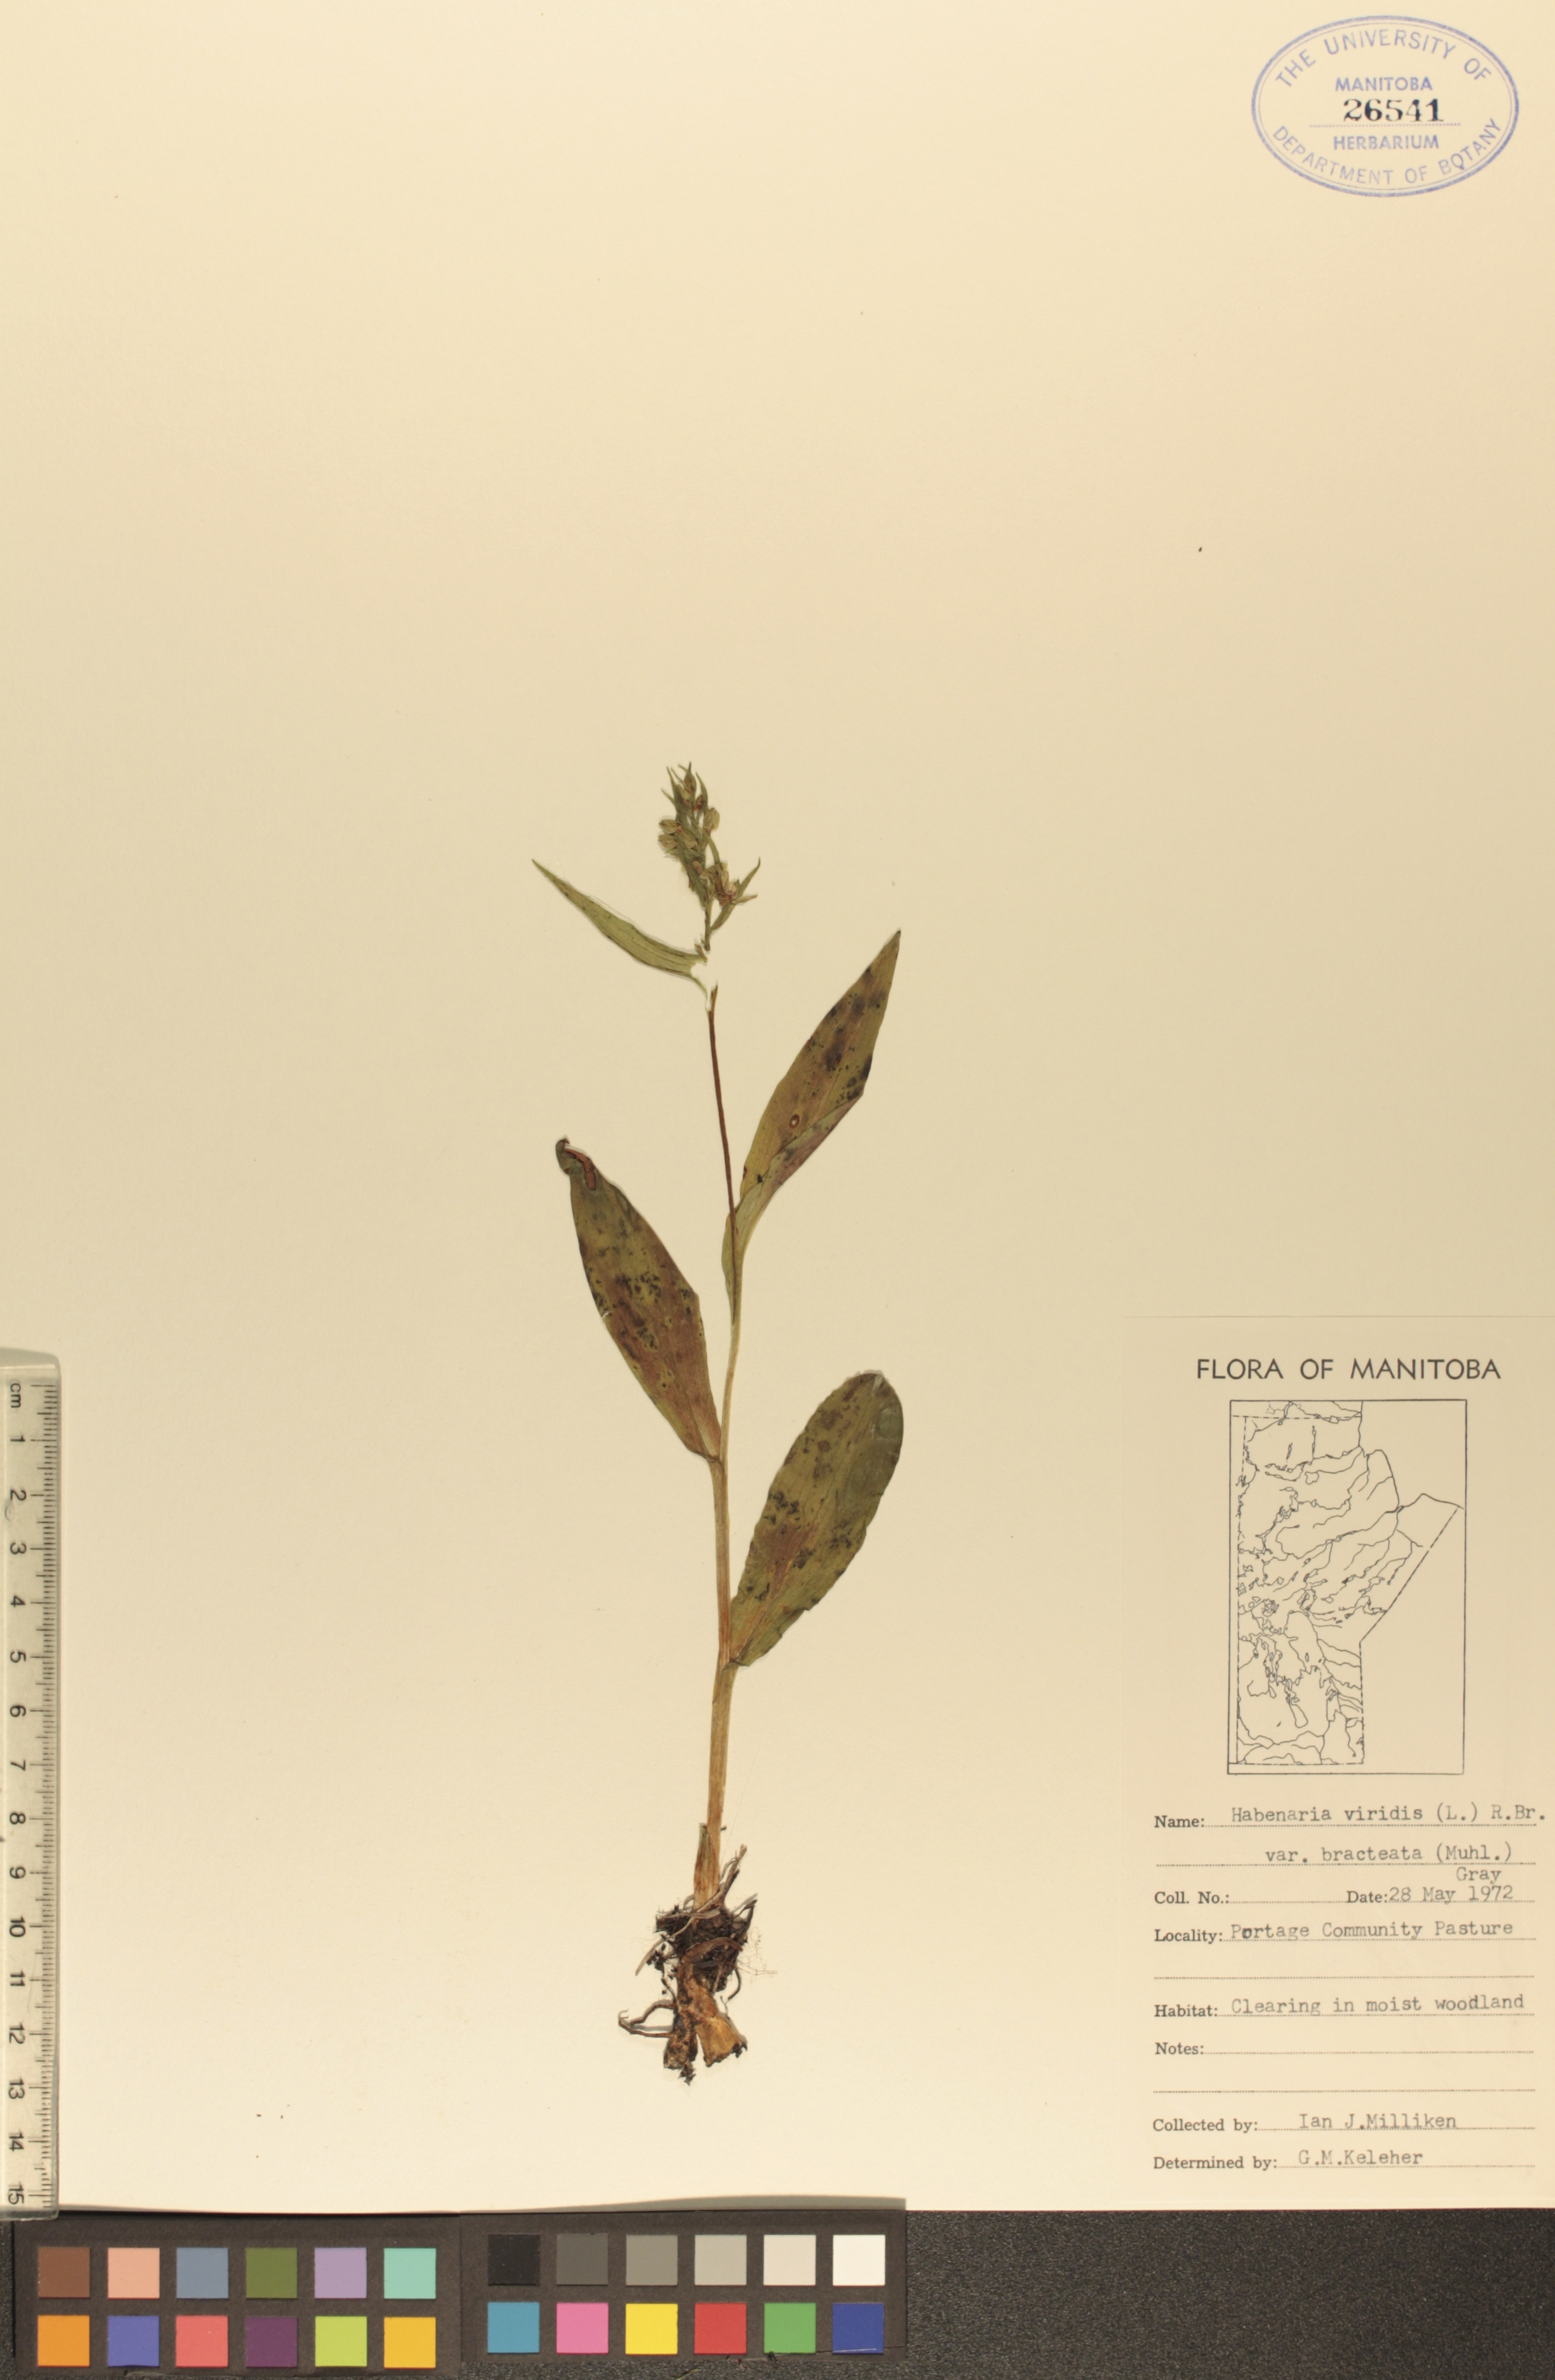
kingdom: Plantae
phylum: Tracheophyta
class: Liliopsida
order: Asparagales
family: Orchidaceae
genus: Dactylorhiza
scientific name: Dactylorhiza viridis
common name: Longbract frog orchid
